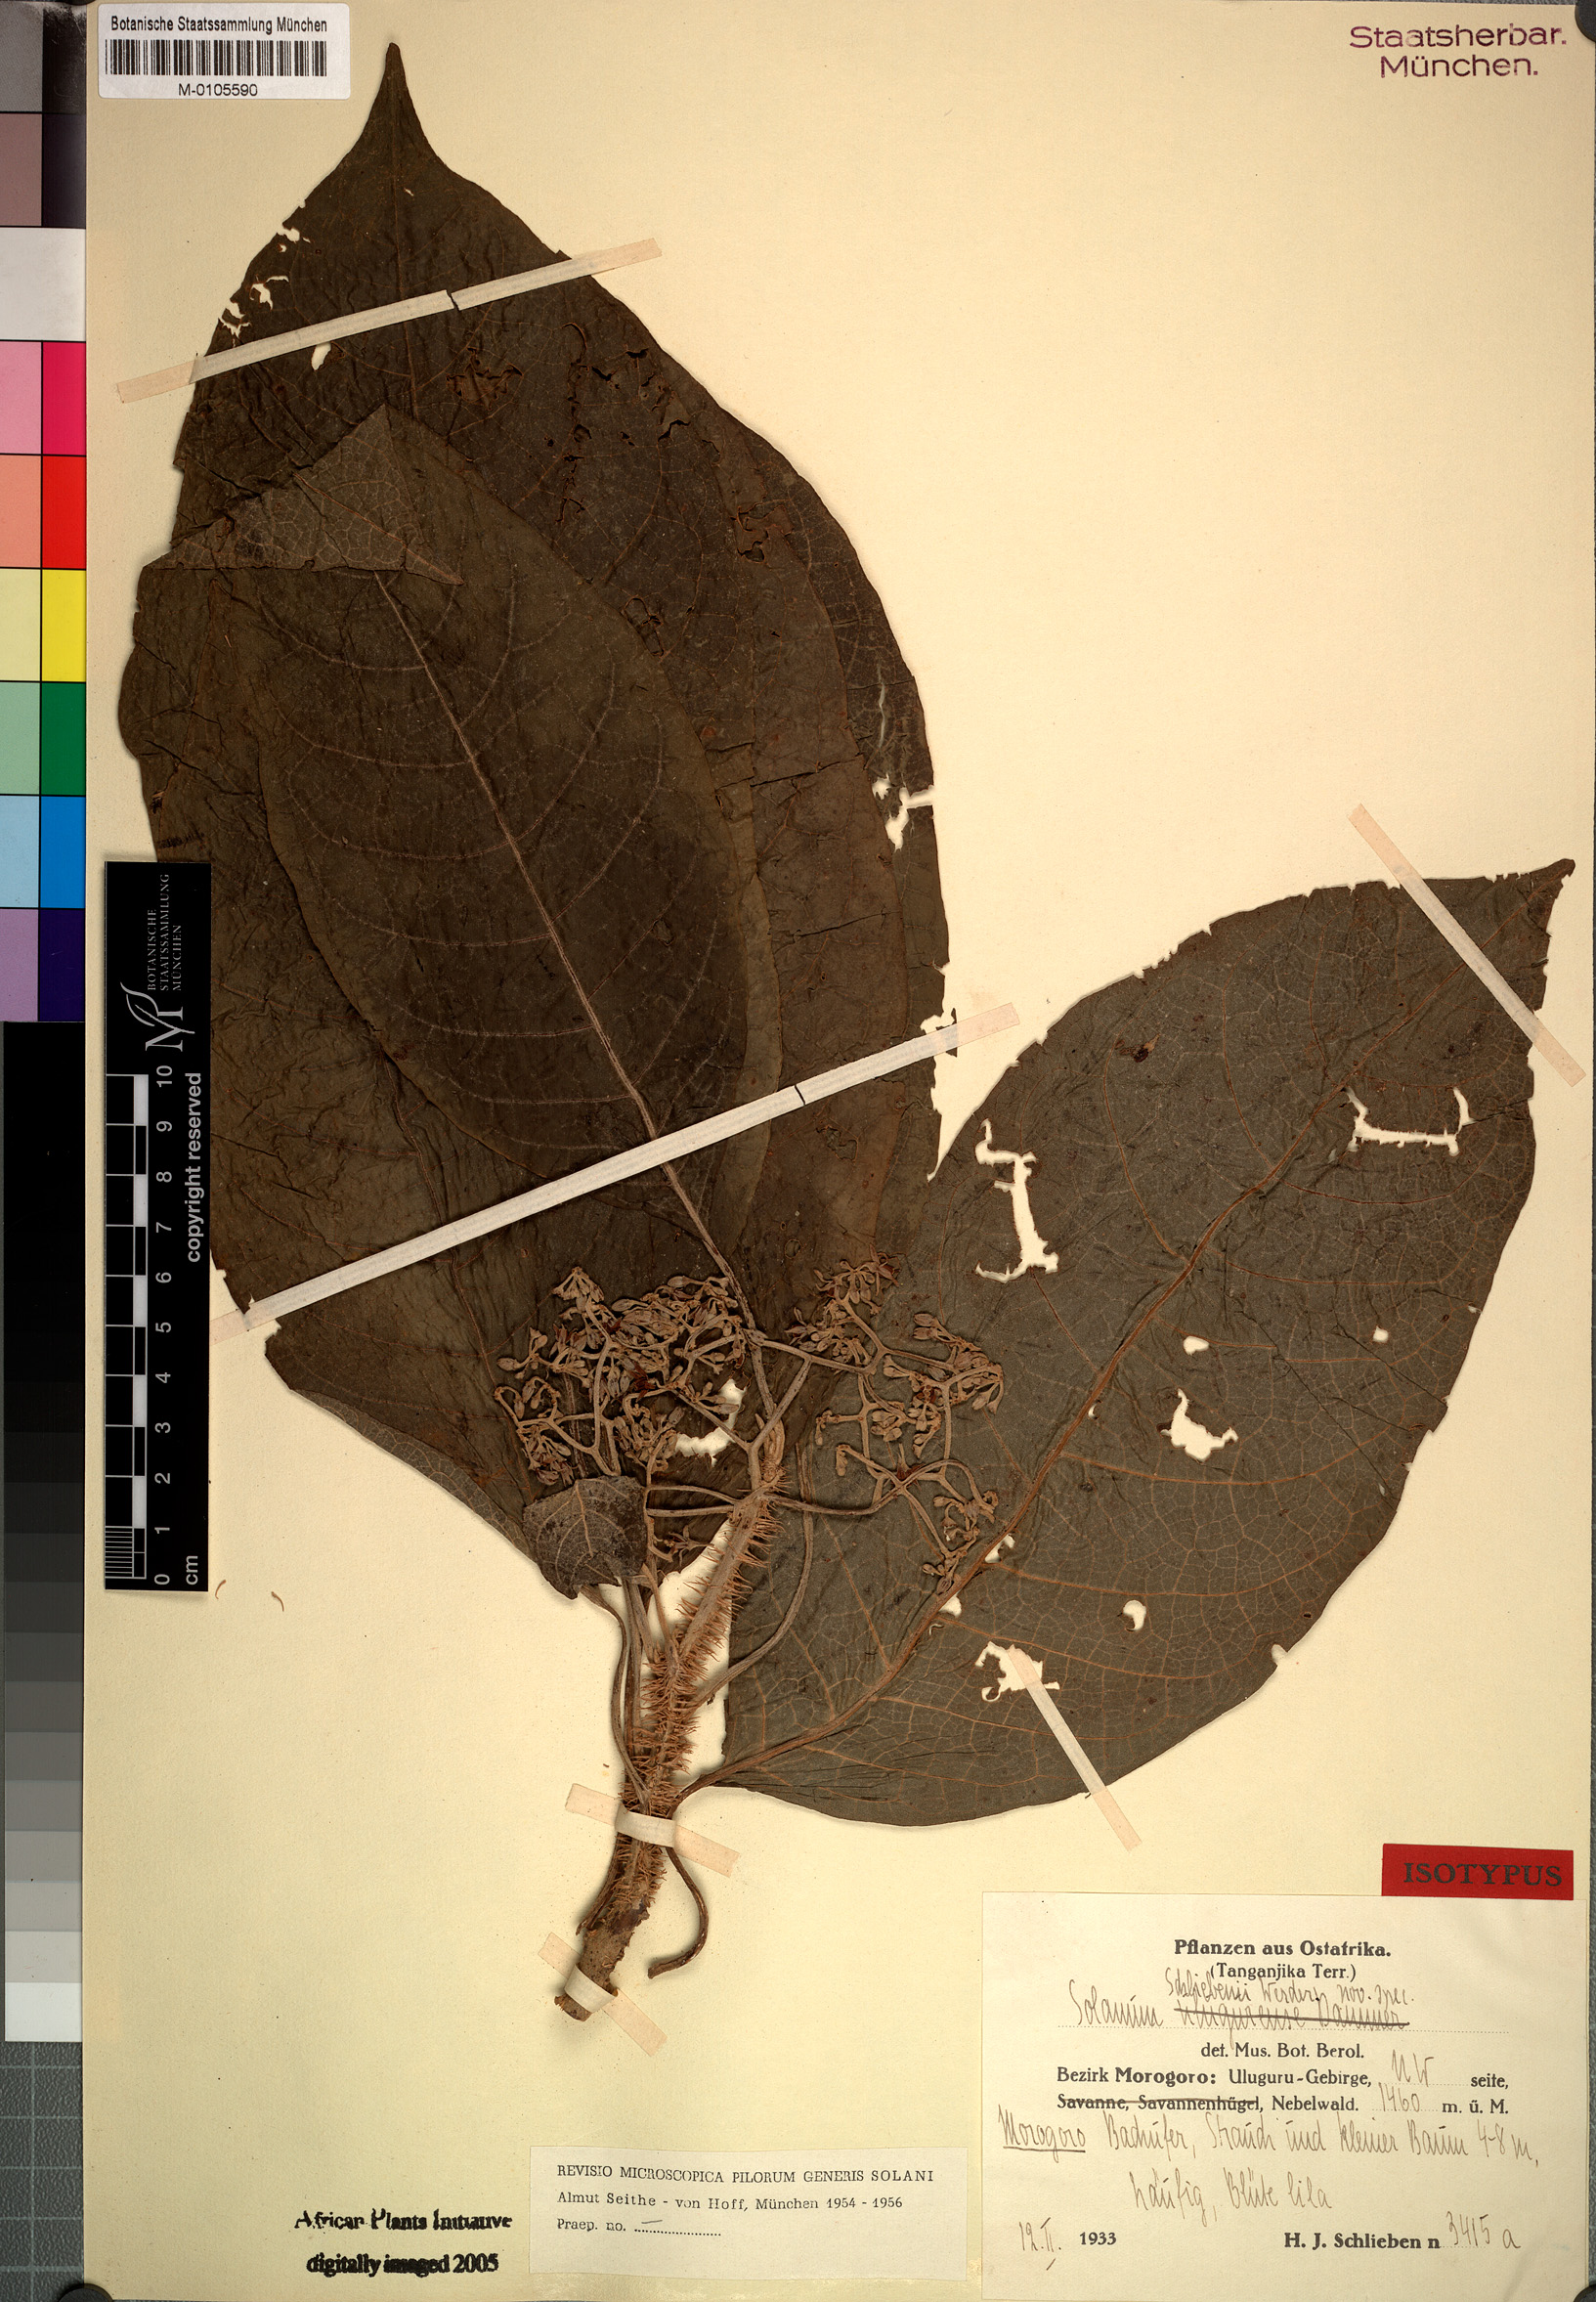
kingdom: Plantae
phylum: Tracheophyta
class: Magnoliopsida
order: Solanales
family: Solanaceae
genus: Solanum
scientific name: Solanum schliebenii
